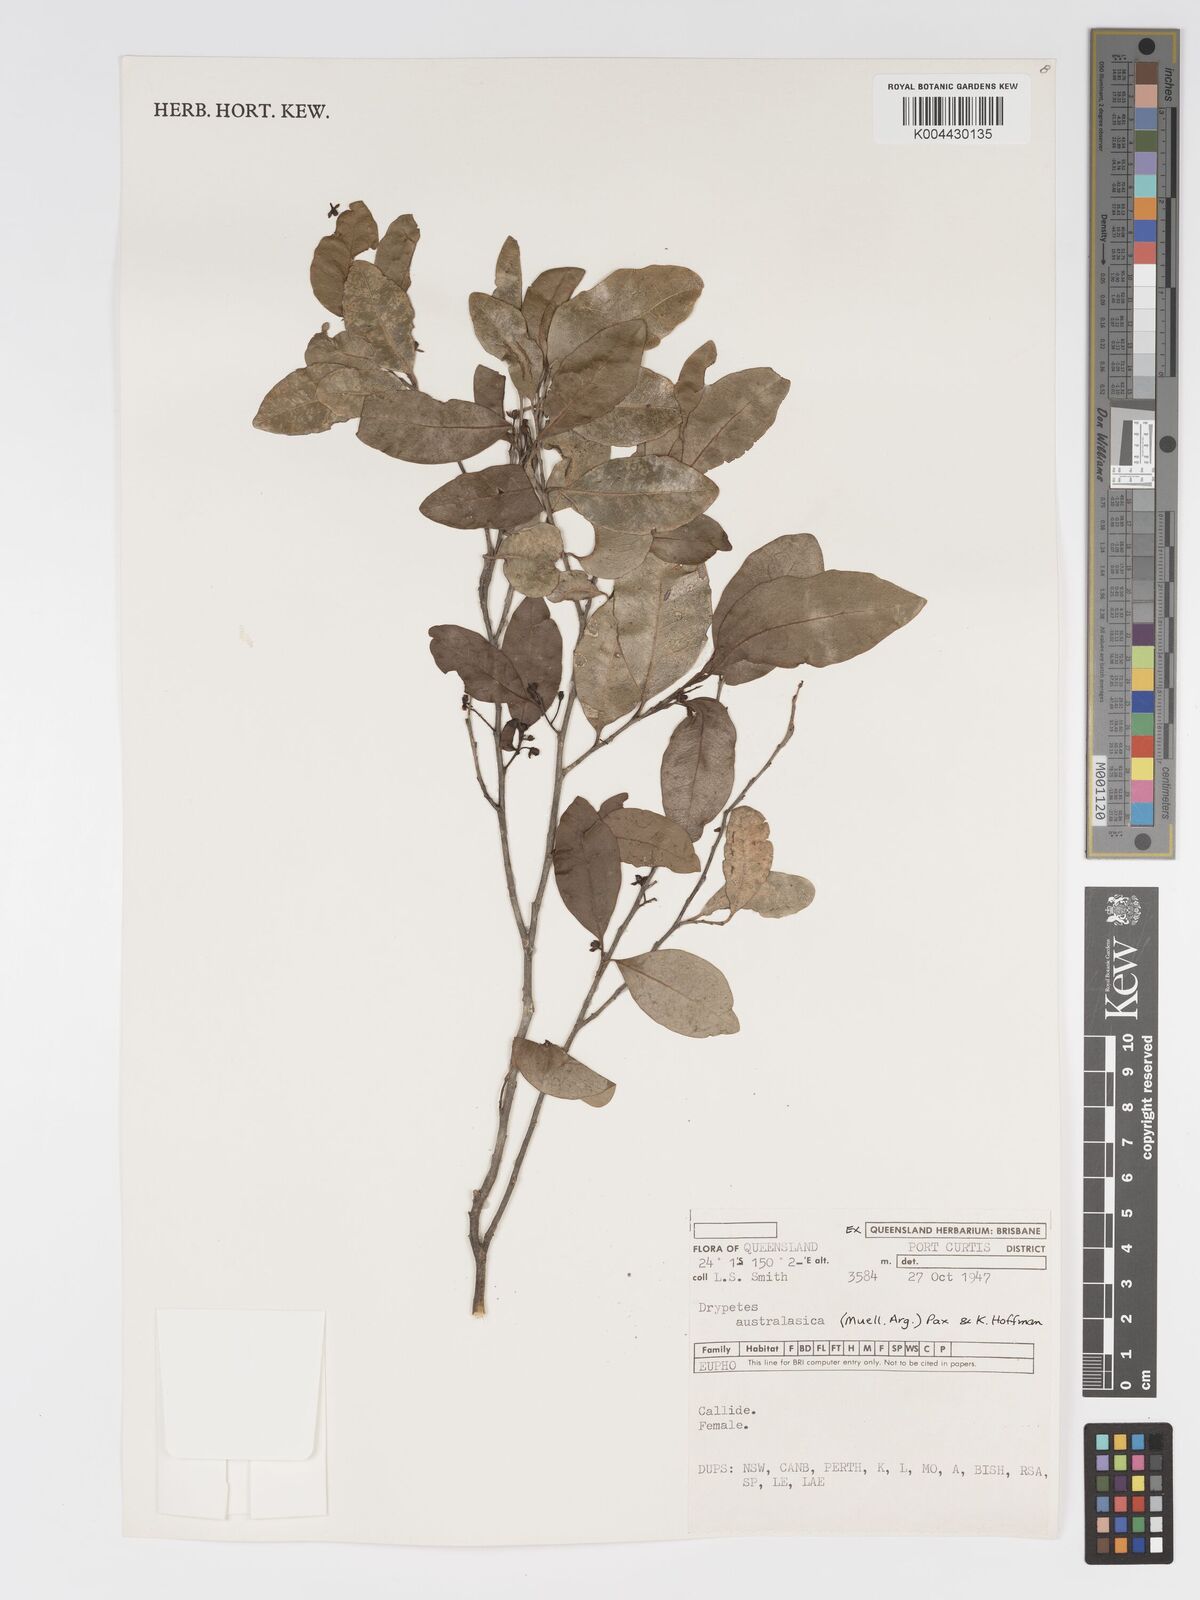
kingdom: Plantae
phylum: Tracheophyta
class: Magnoliopsida
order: Malpighiales
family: Putranjivaceae
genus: Drypetes
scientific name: Drypetes deplanchei
